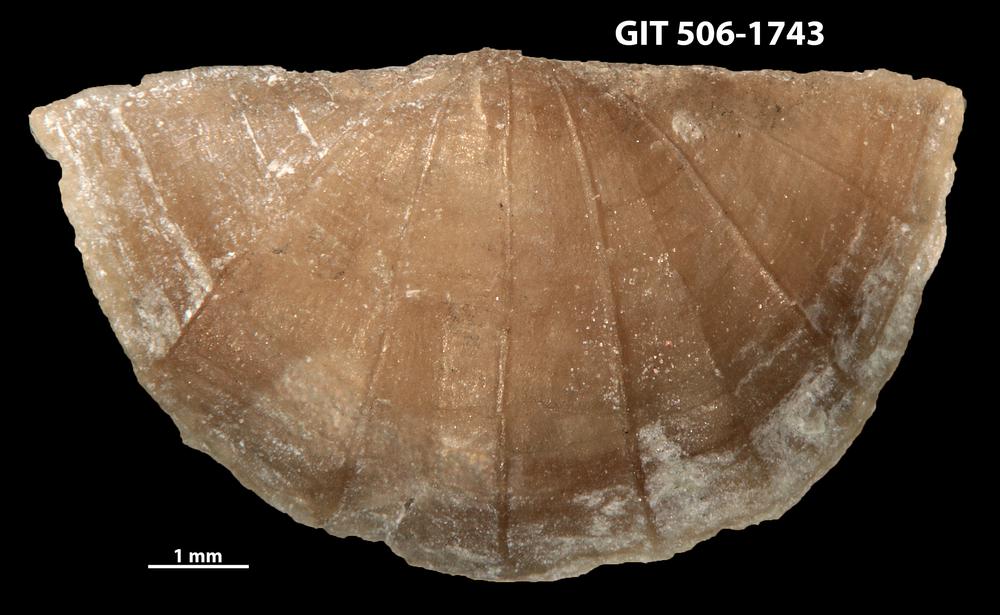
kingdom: Animalia
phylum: Brachiopoda
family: Leptellinidae
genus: Leangella
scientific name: Leangella Leptaena segmentum
